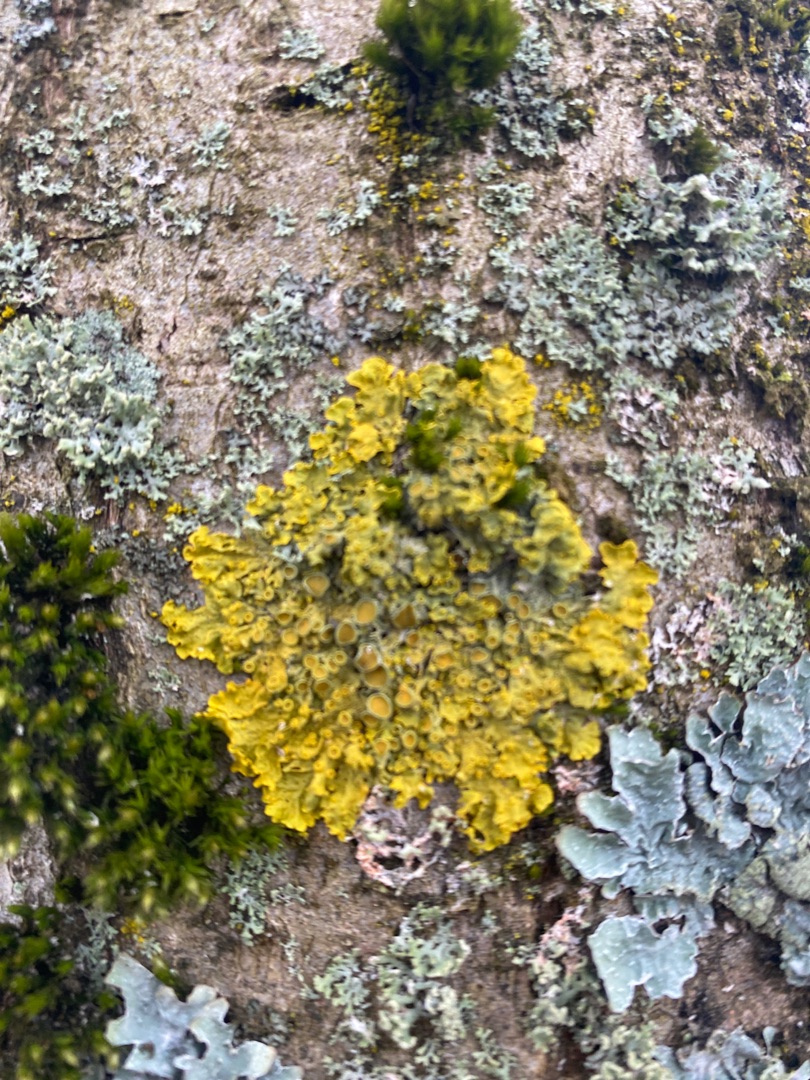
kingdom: Fungi
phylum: Ascomycota
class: Lecanoromycetes
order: Teloschistales
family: Teloschistaceae
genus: Xanthoria
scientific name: Xanthoria parietina
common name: Almindelig væggelav
